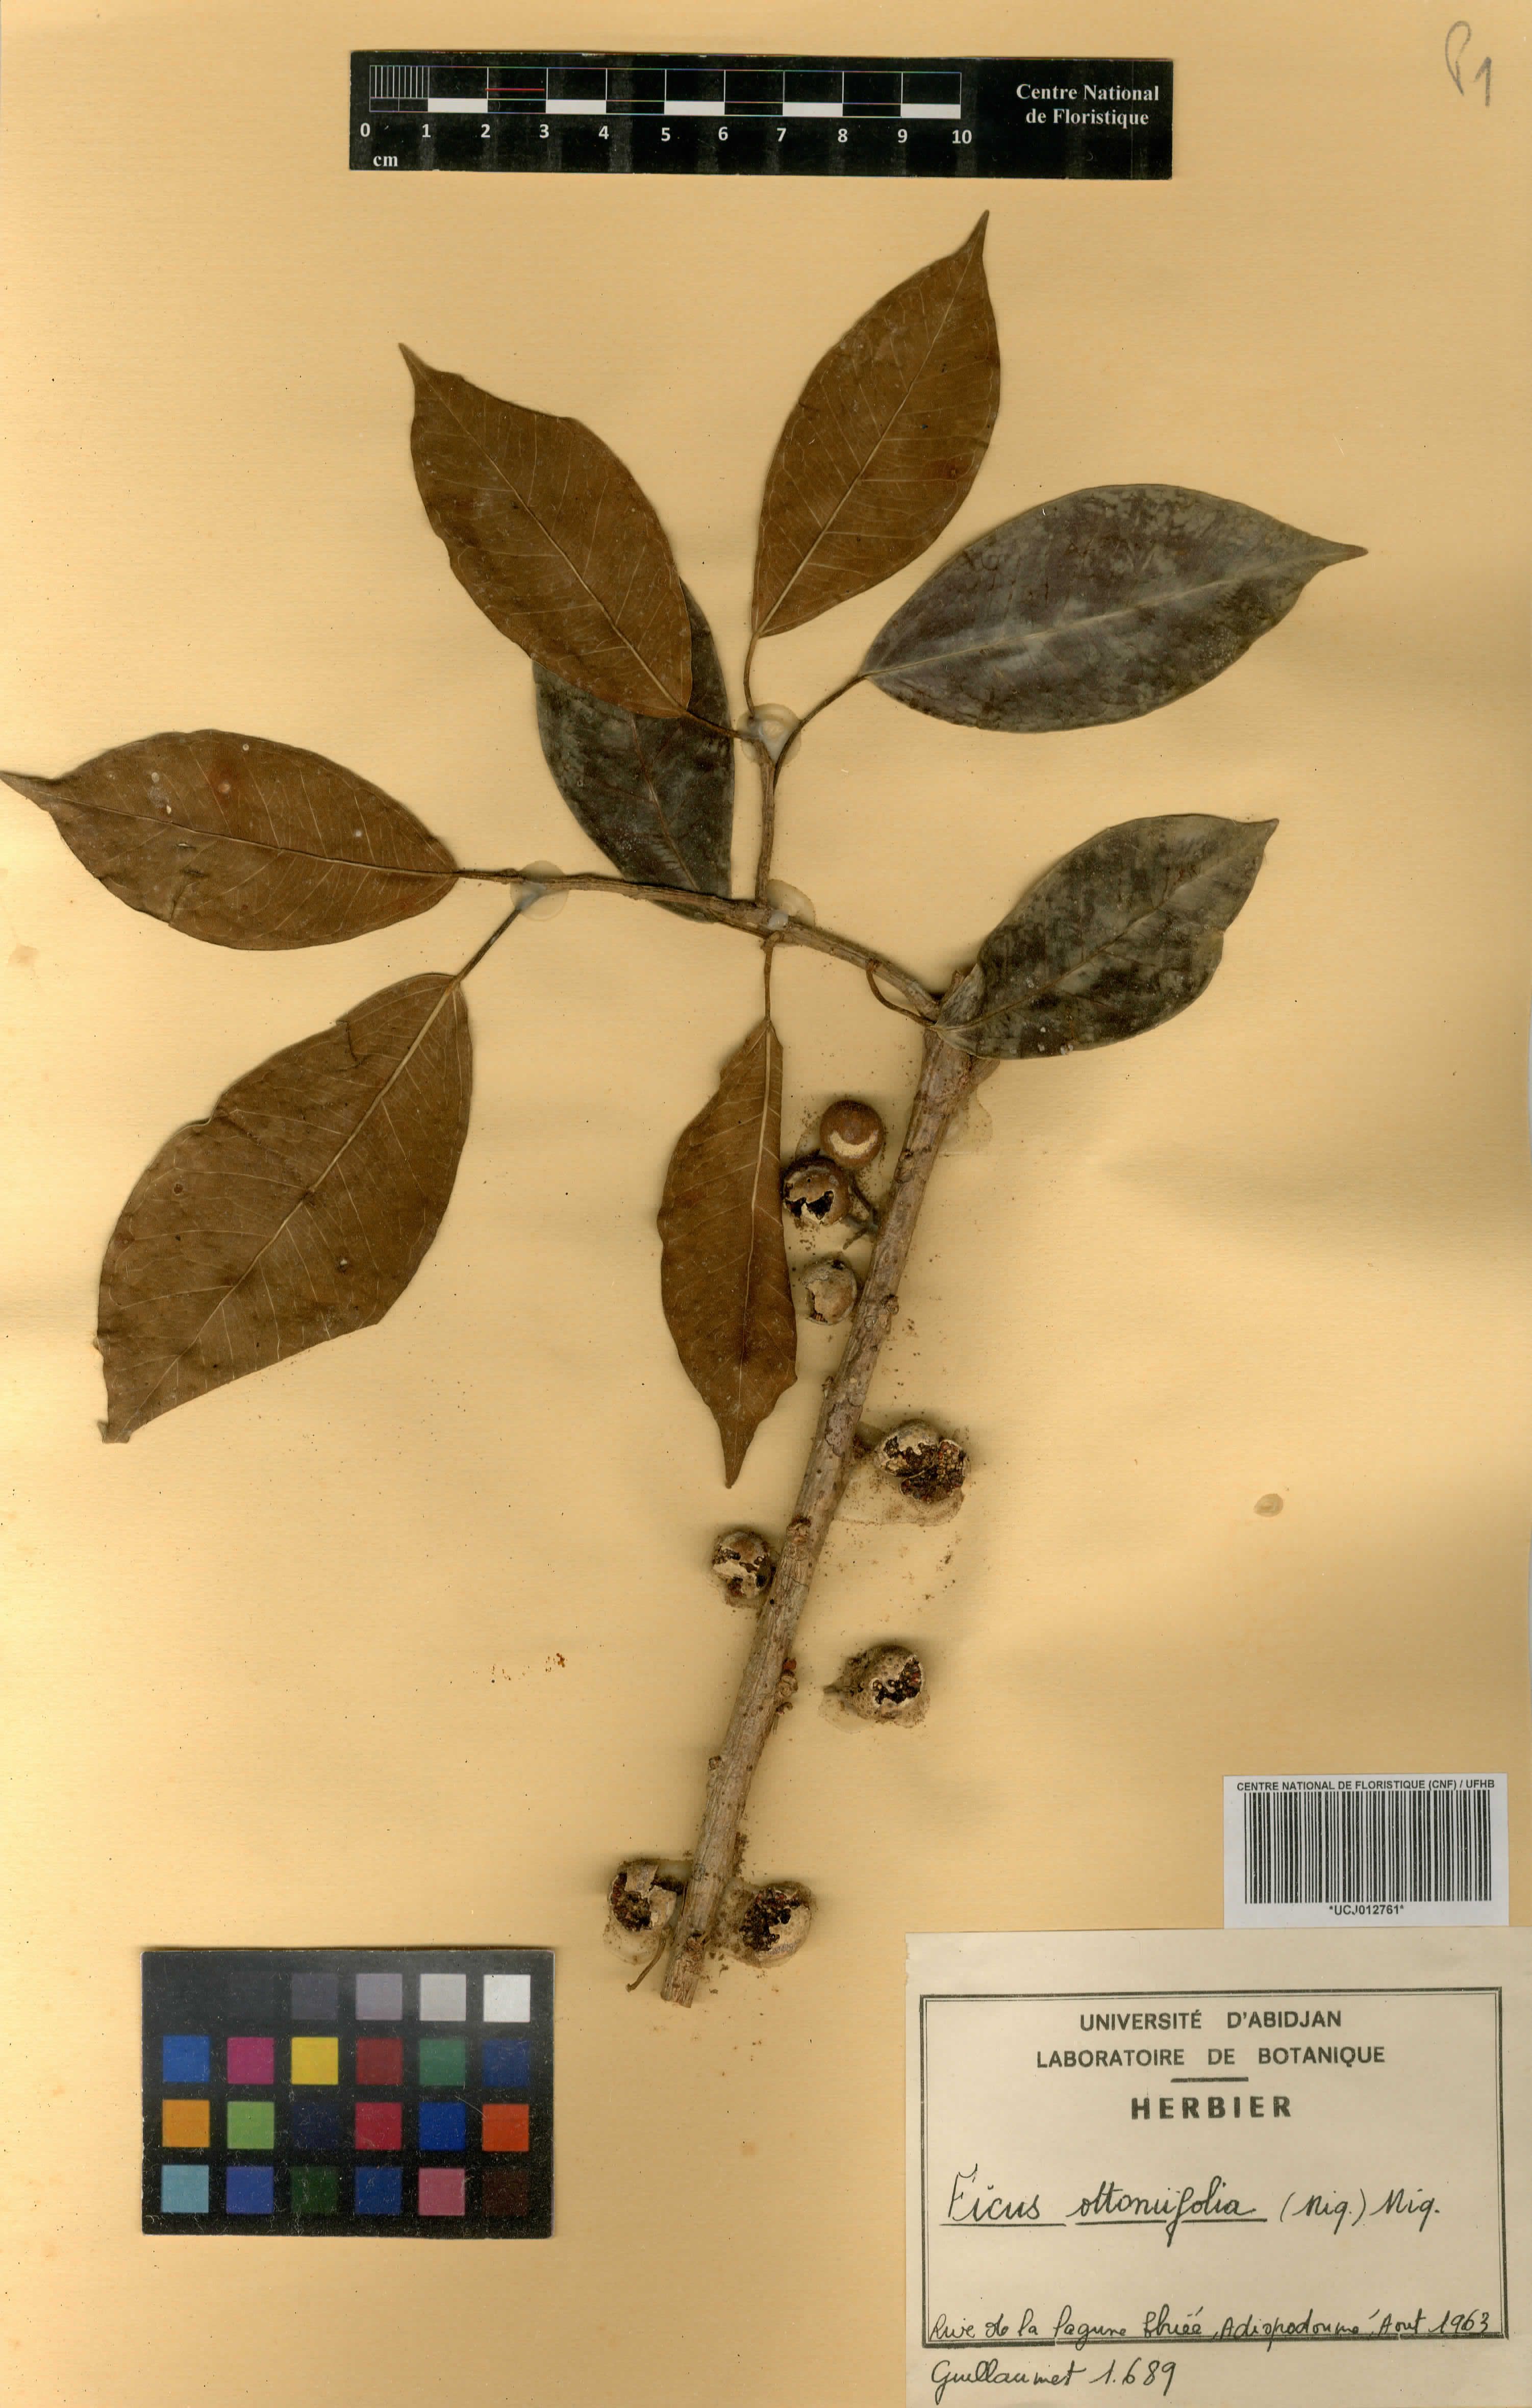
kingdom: Plantae
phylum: Tracheophyta
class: Magnoliopsida
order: Rosales
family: Moraceae
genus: Ficus
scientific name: Ficus ottoniifolia
